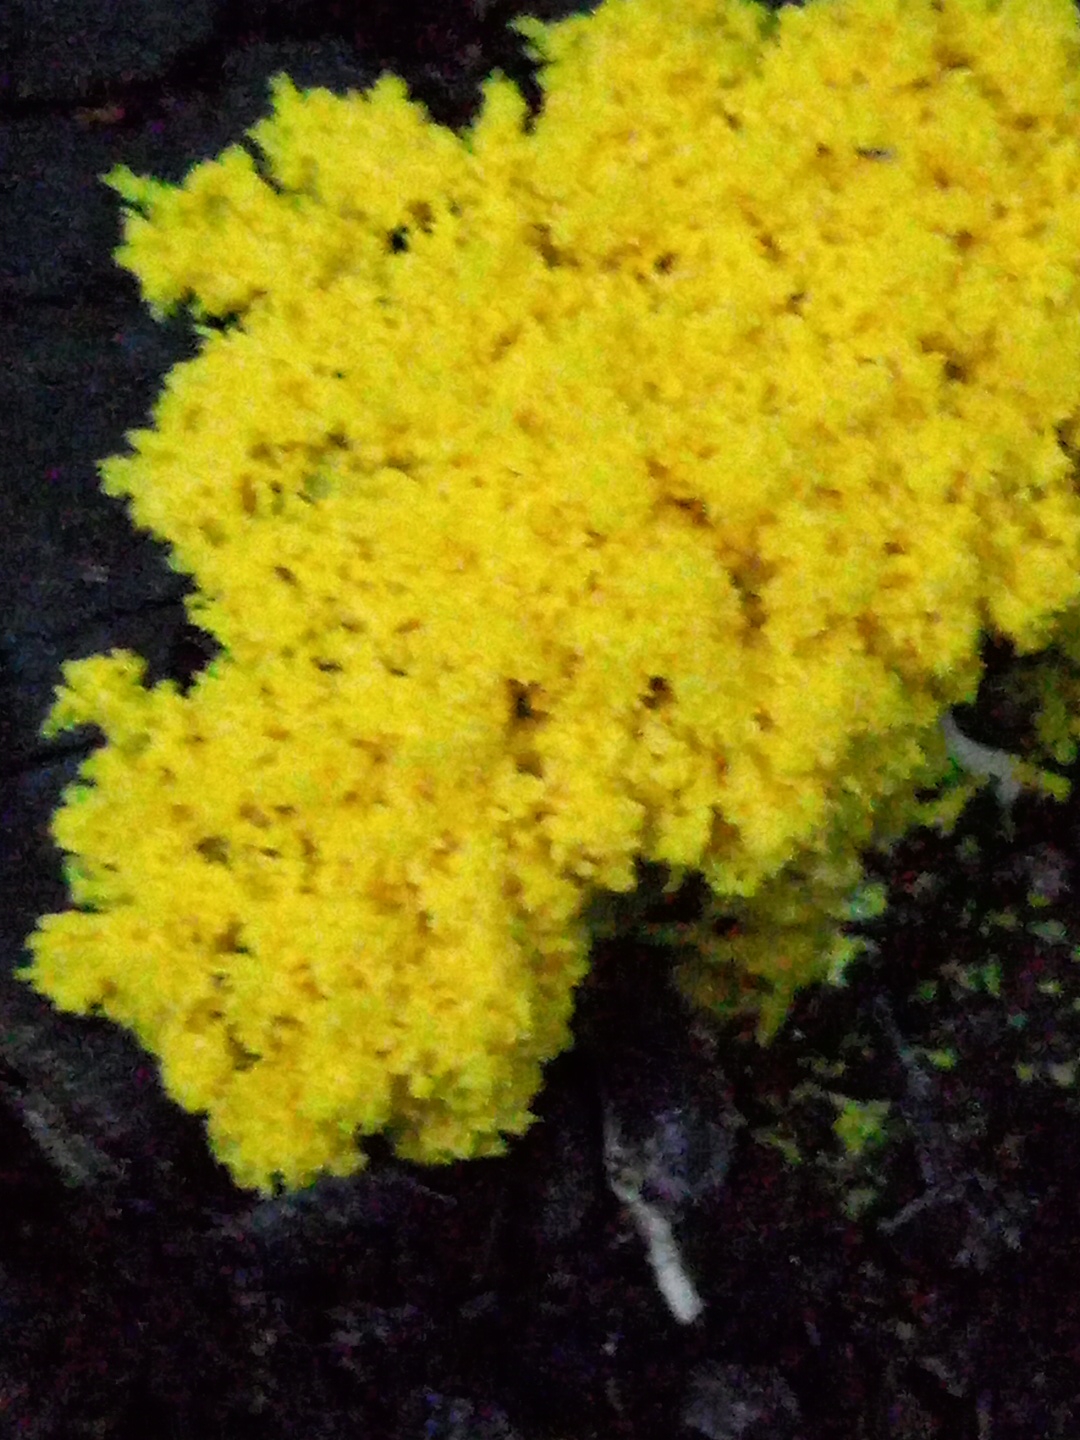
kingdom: Protozoa
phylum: Mycetozoa
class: Myxomycetes
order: Physarales
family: Physaraceae
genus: Fuligo
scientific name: Fuligo septica
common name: gul troldsmør
